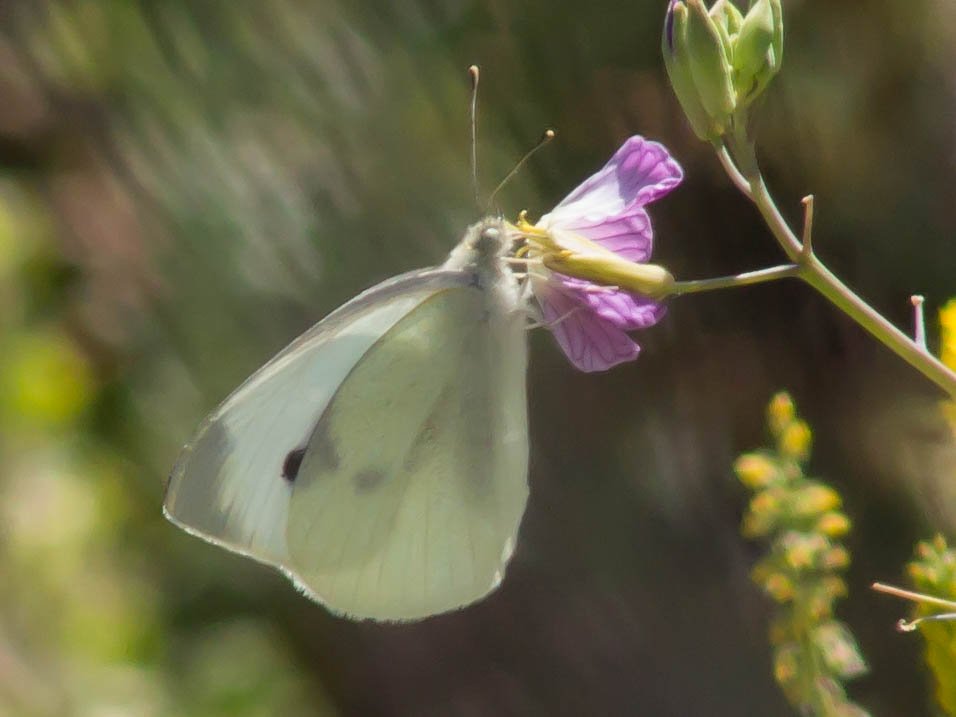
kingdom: Animalia
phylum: Arthropoda
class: Insecta
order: Lepidoptera
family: Pieridae
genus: Pieris
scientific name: Pieris rapae
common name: Cabbage White
